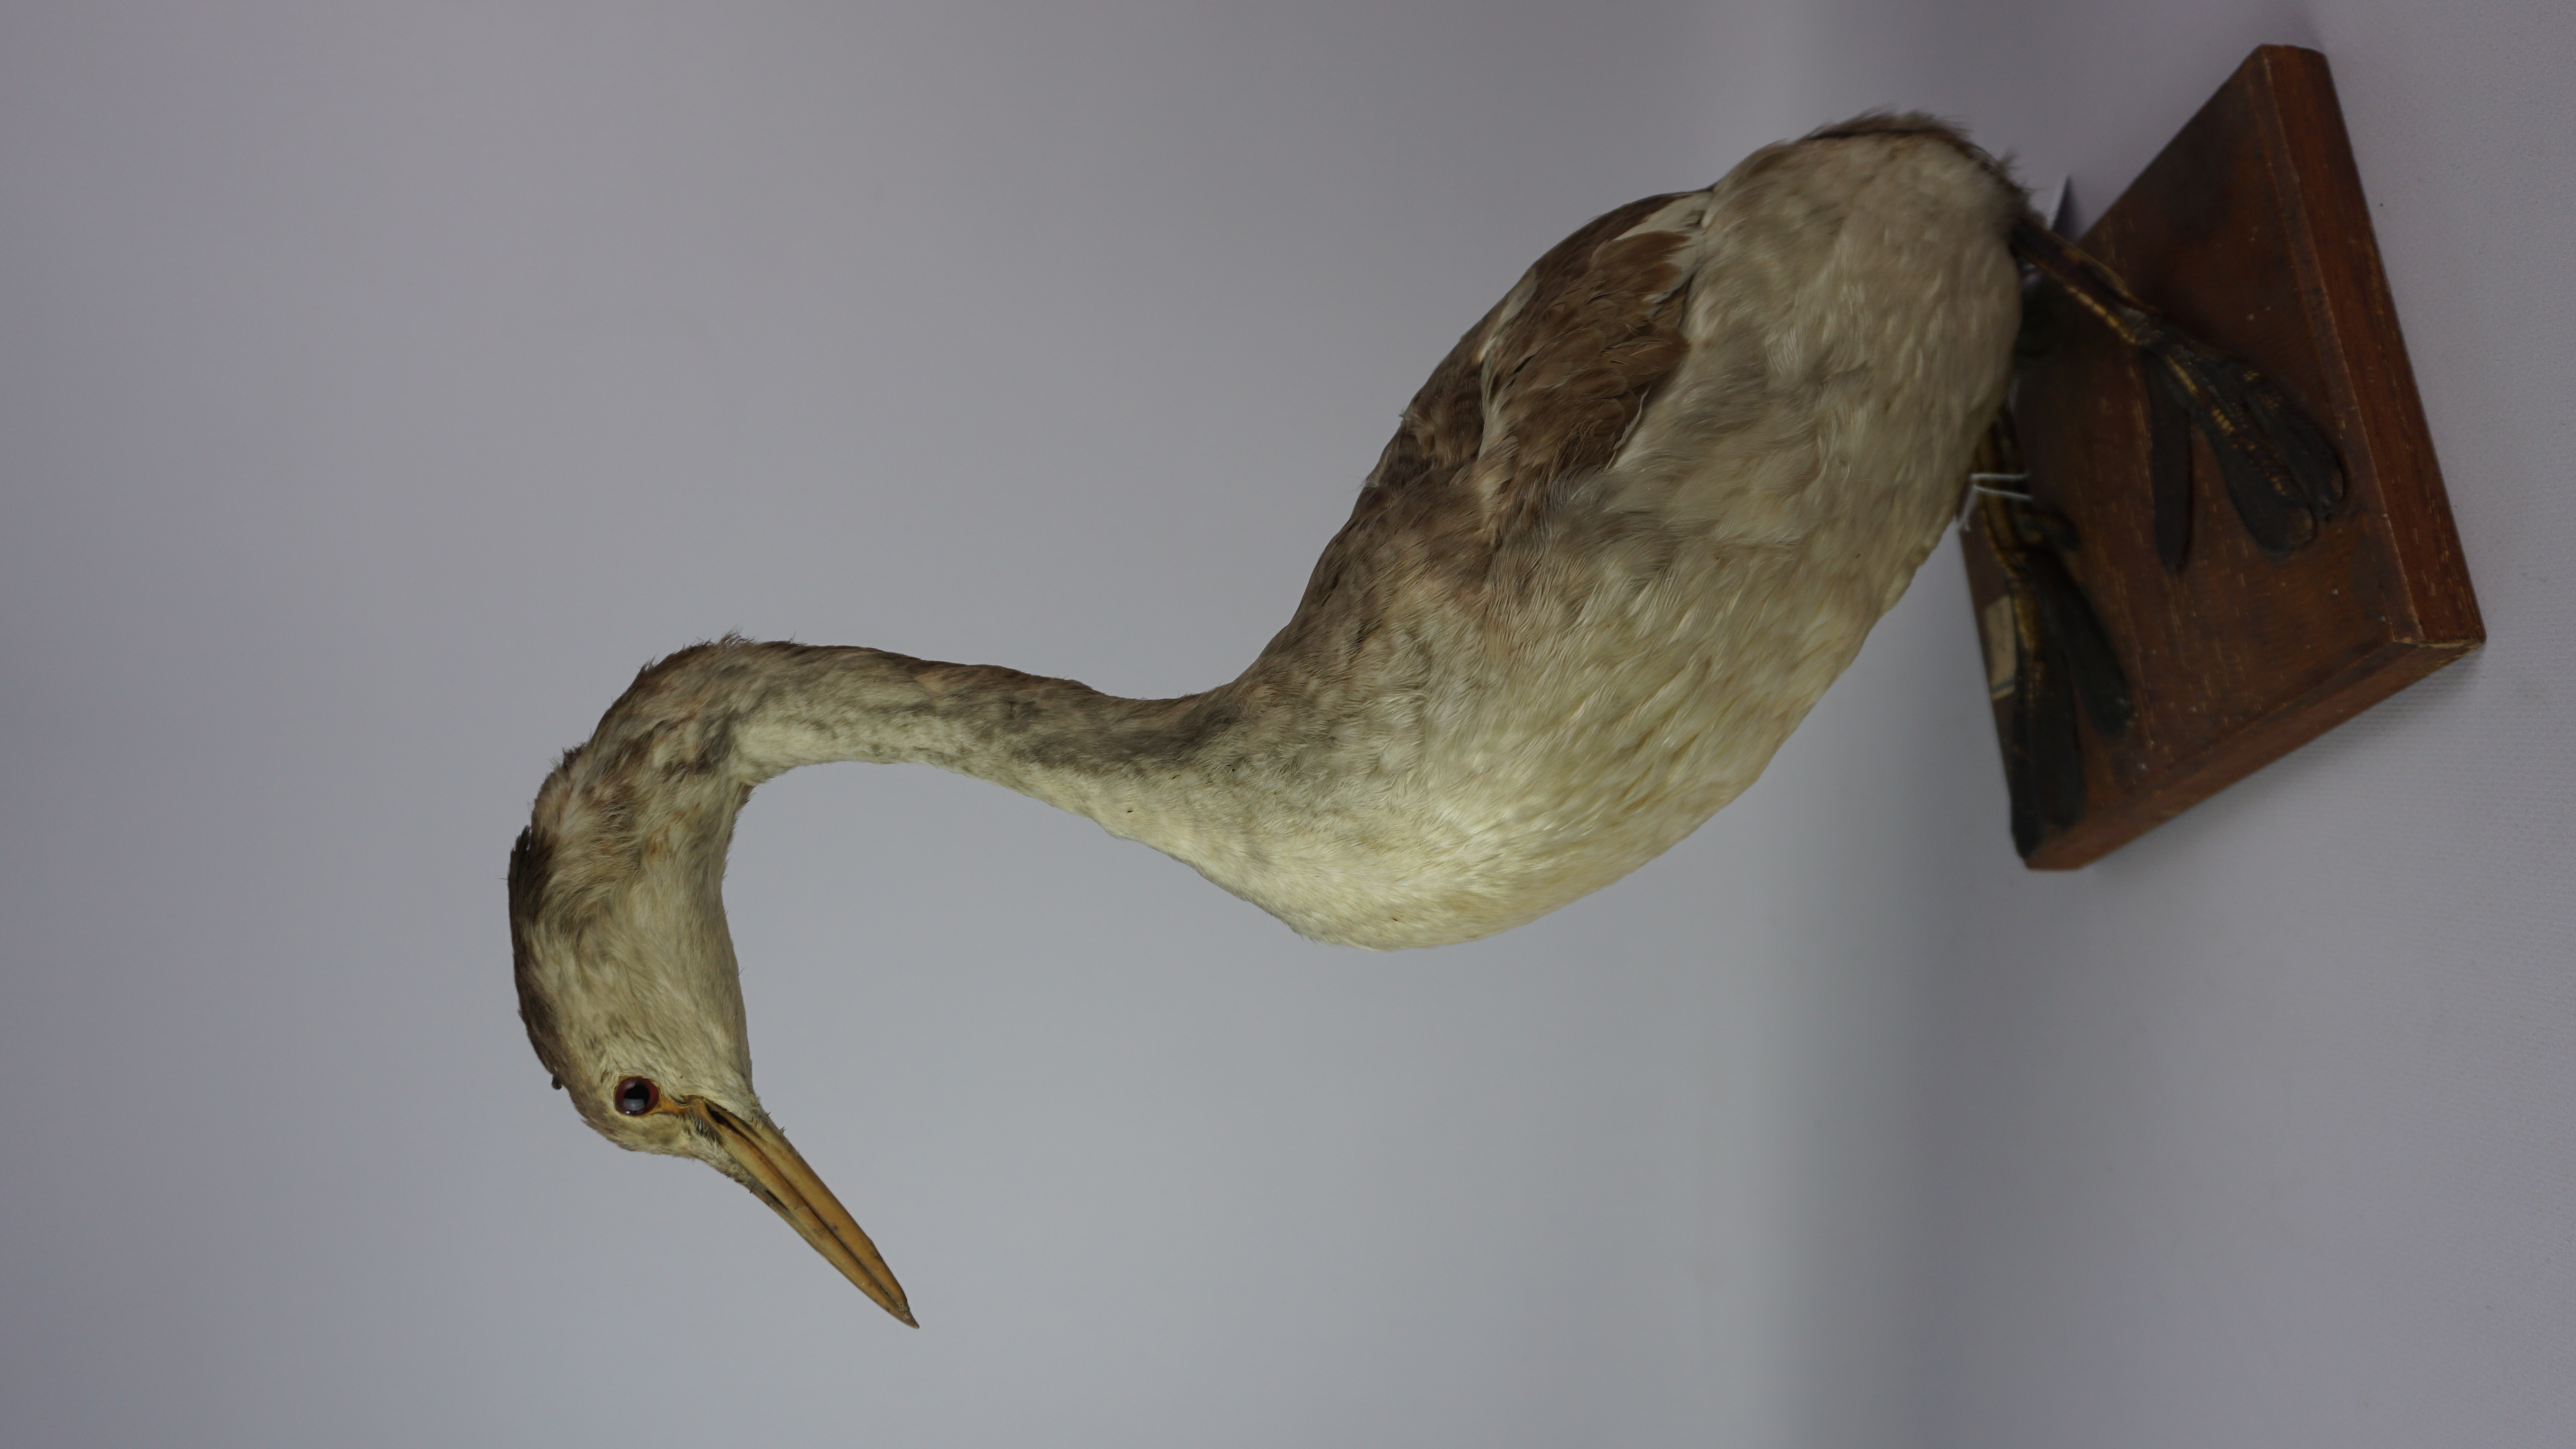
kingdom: Animalia
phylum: Chordata
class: Aves
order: Podicipediformes
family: Podicipedidae
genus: Podiceps
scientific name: Podiceps cristatus
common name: Great crested grebe
